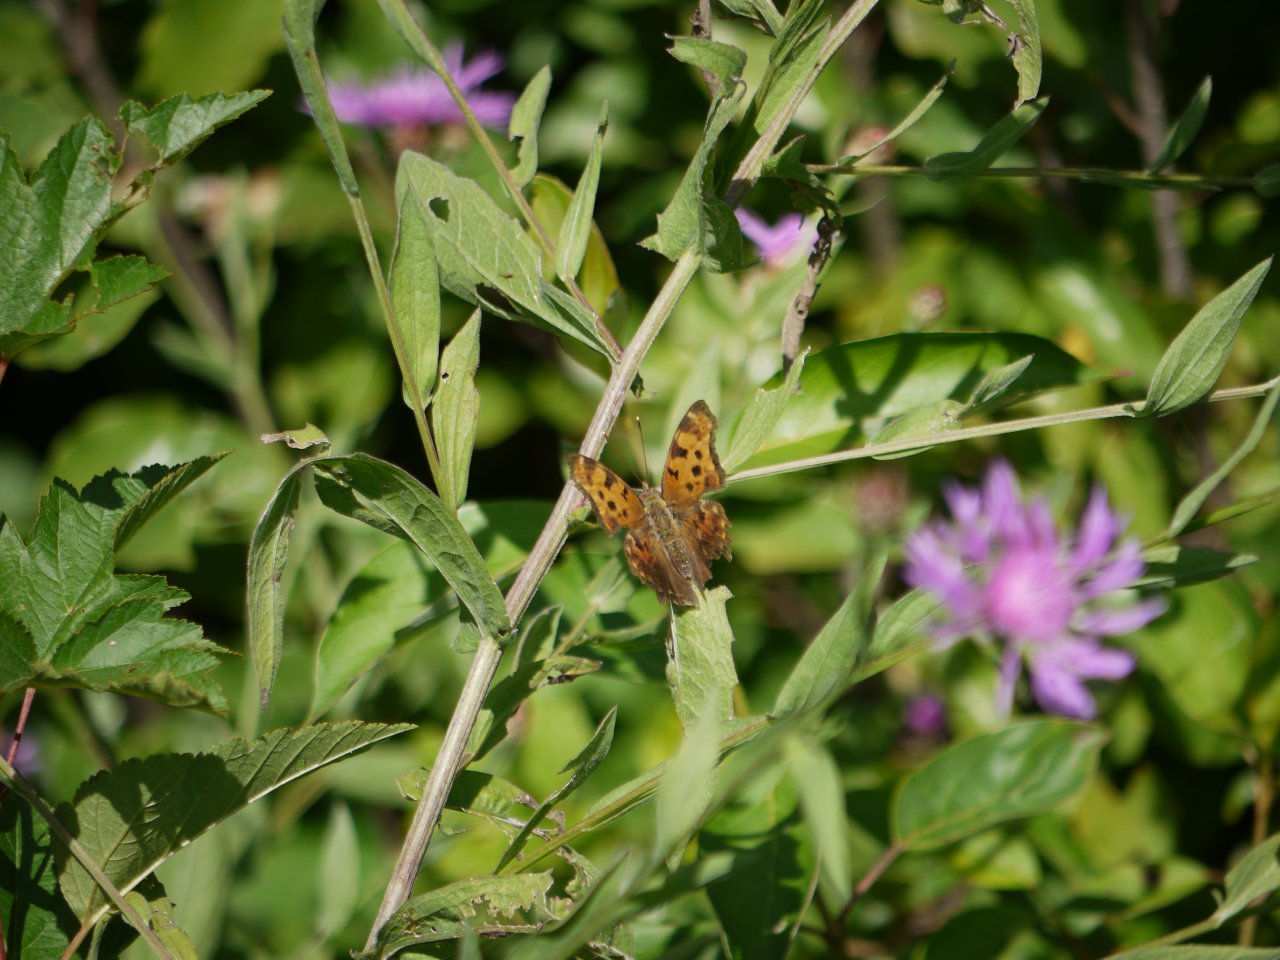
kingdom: Animalia
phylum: Arthropoda
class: Insecta
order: Lepidoptera
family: Nymphalidae
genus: Polygonia
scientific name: Polygonia comma
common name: Eastern Comma
